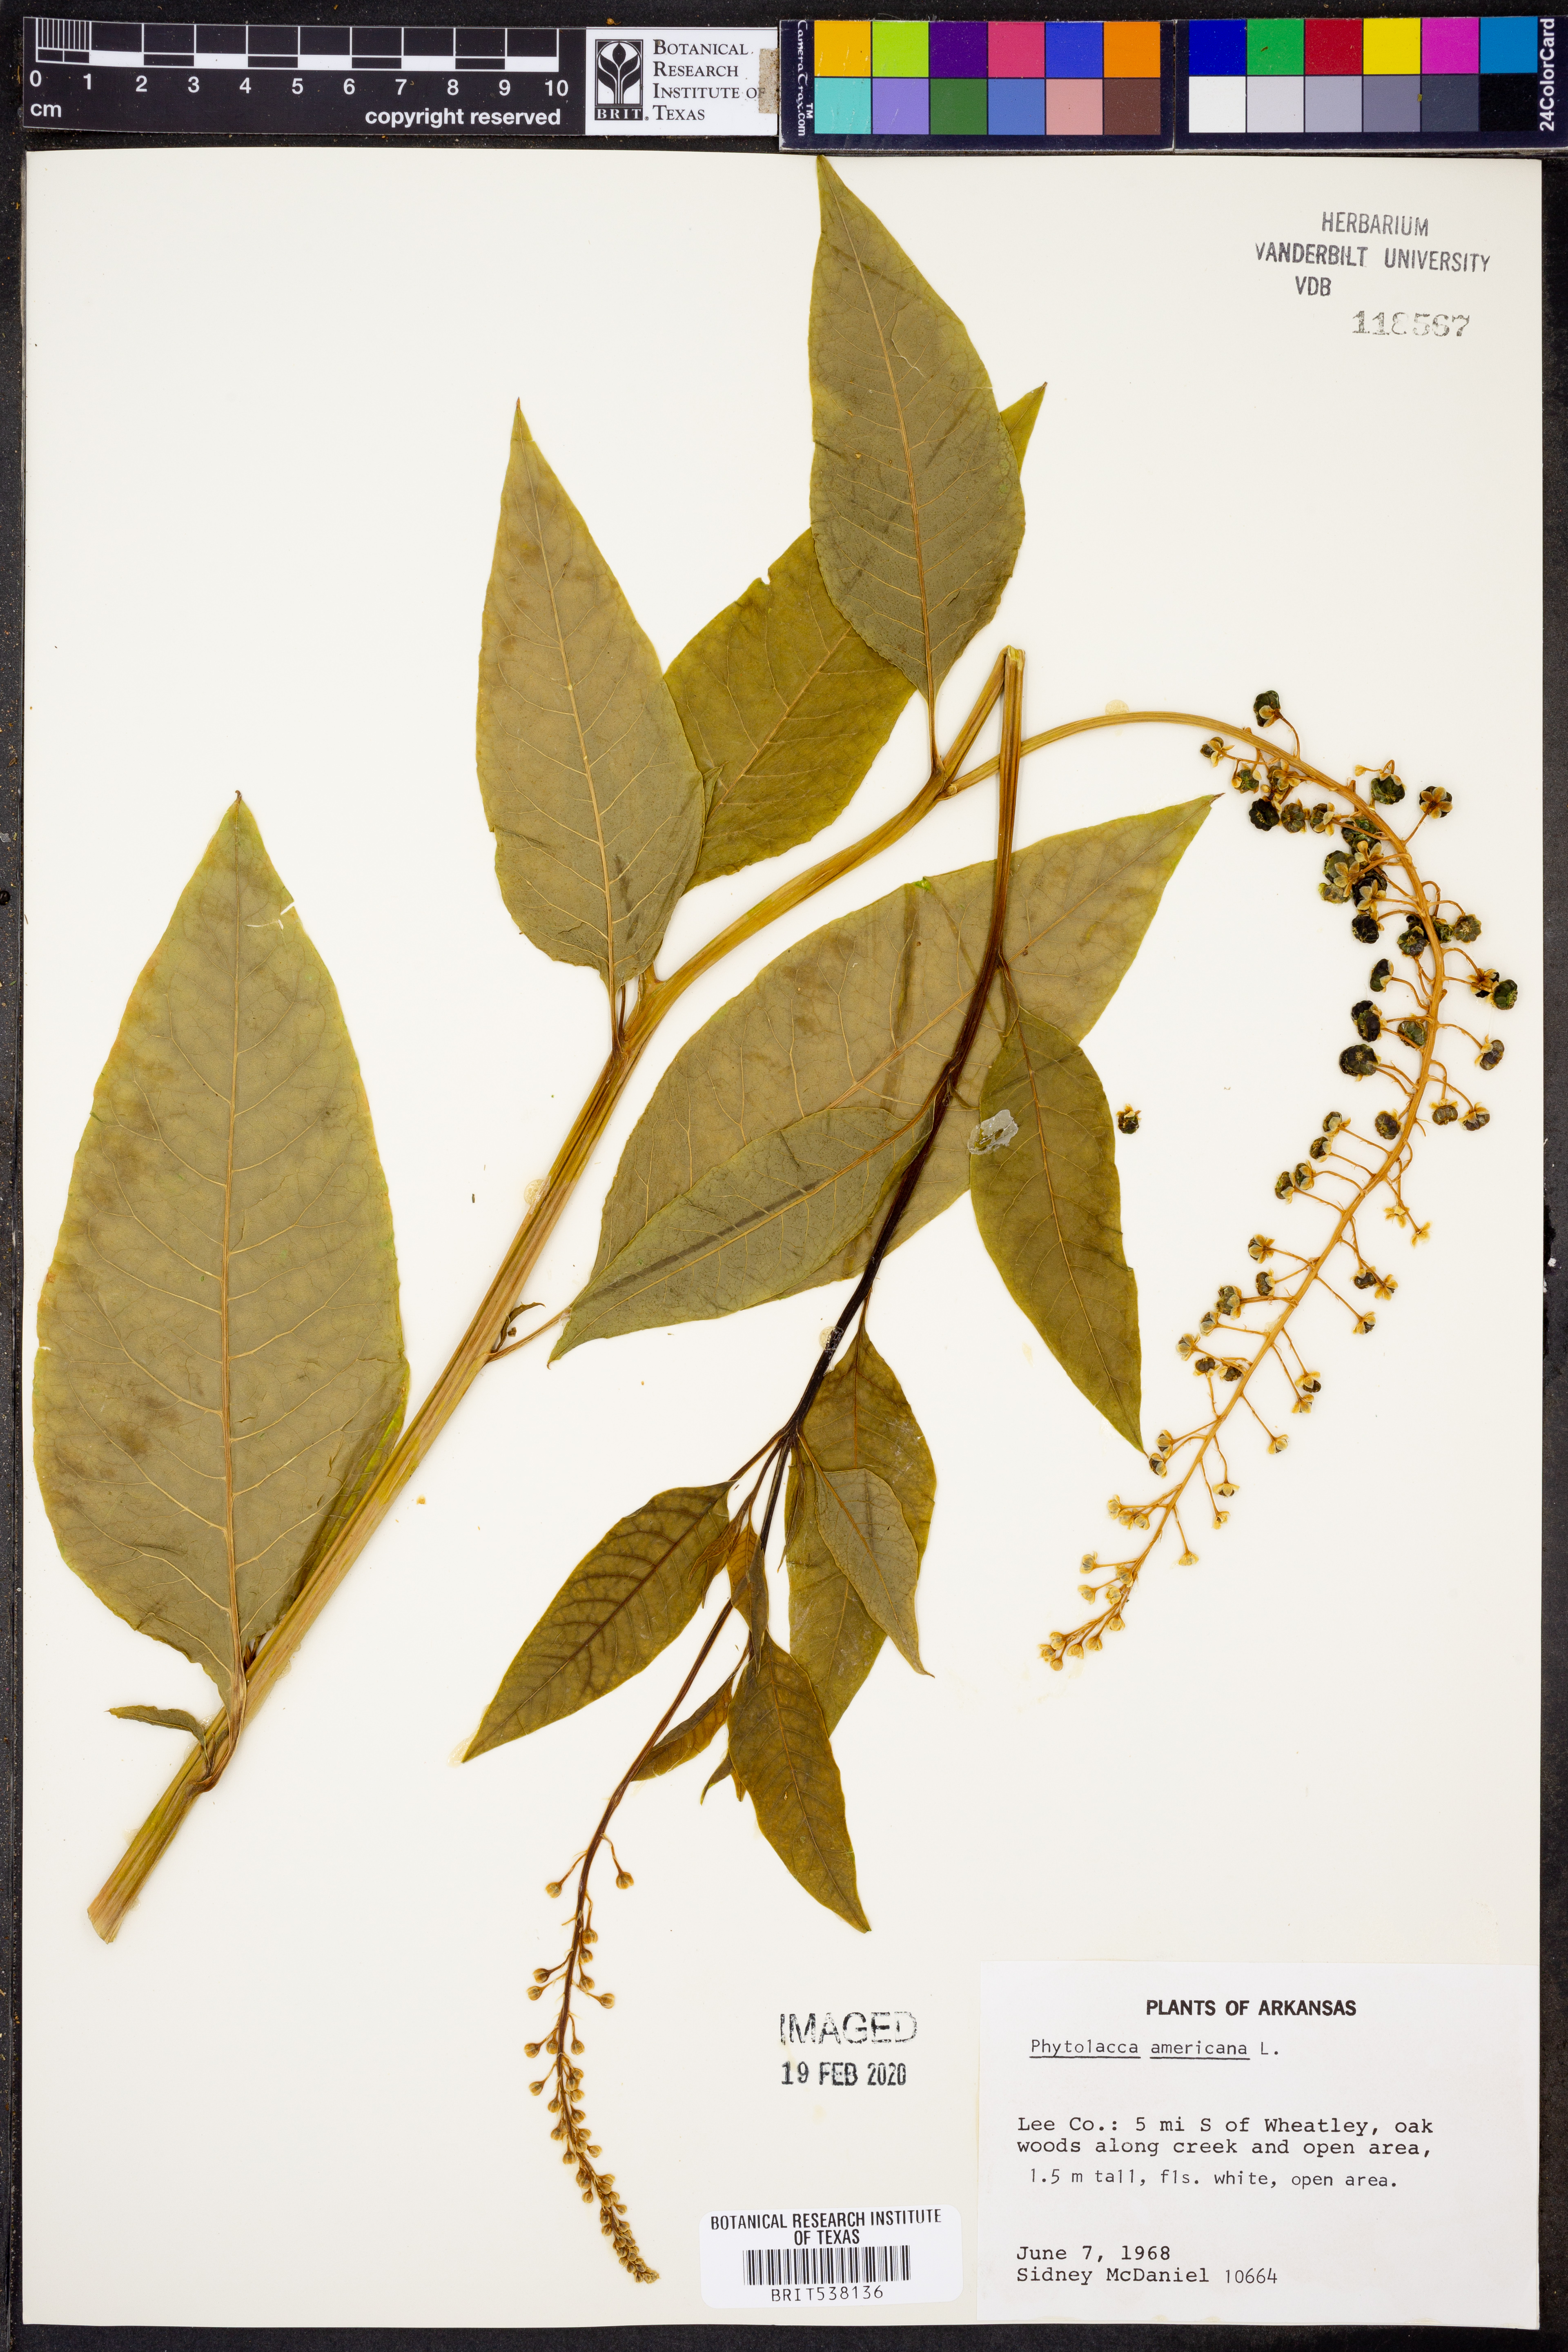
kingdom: Plantae
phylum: Tracheophyta
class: Magnoliopsida
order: Caryophyllales
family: Phytolaccaceae
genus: Phytolacca
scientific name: Phytolacca americana
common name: American pokeweed
